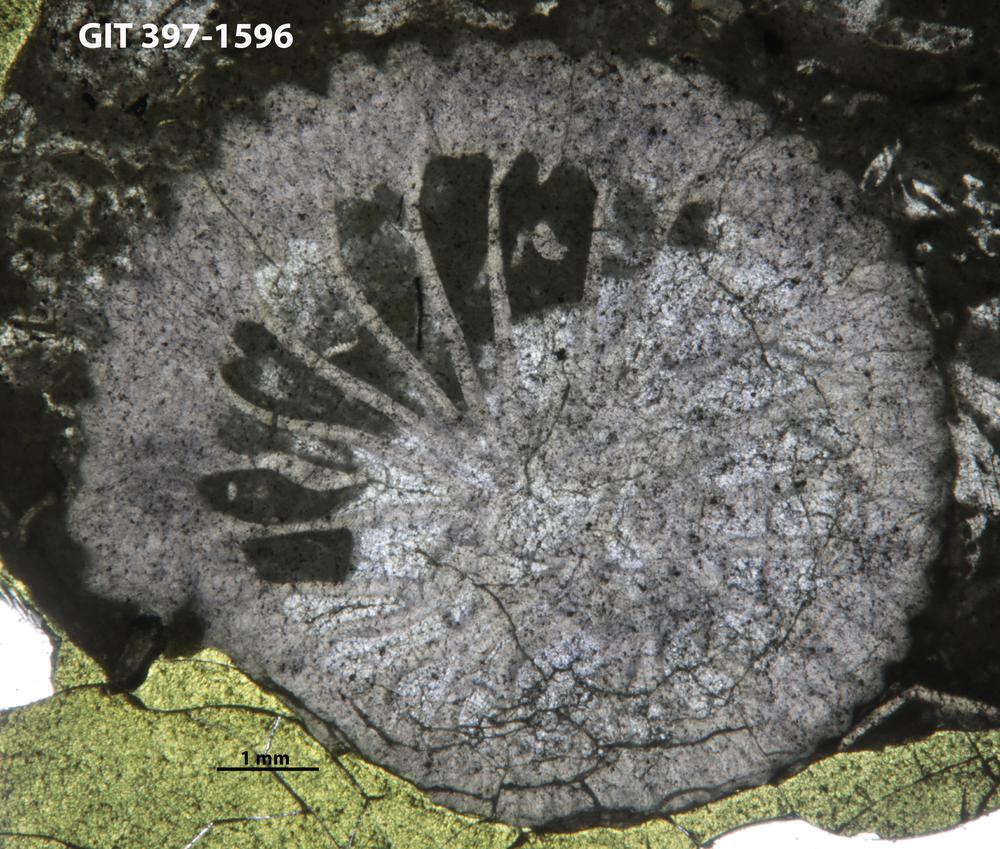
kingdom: Animalia
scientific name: Animalia
